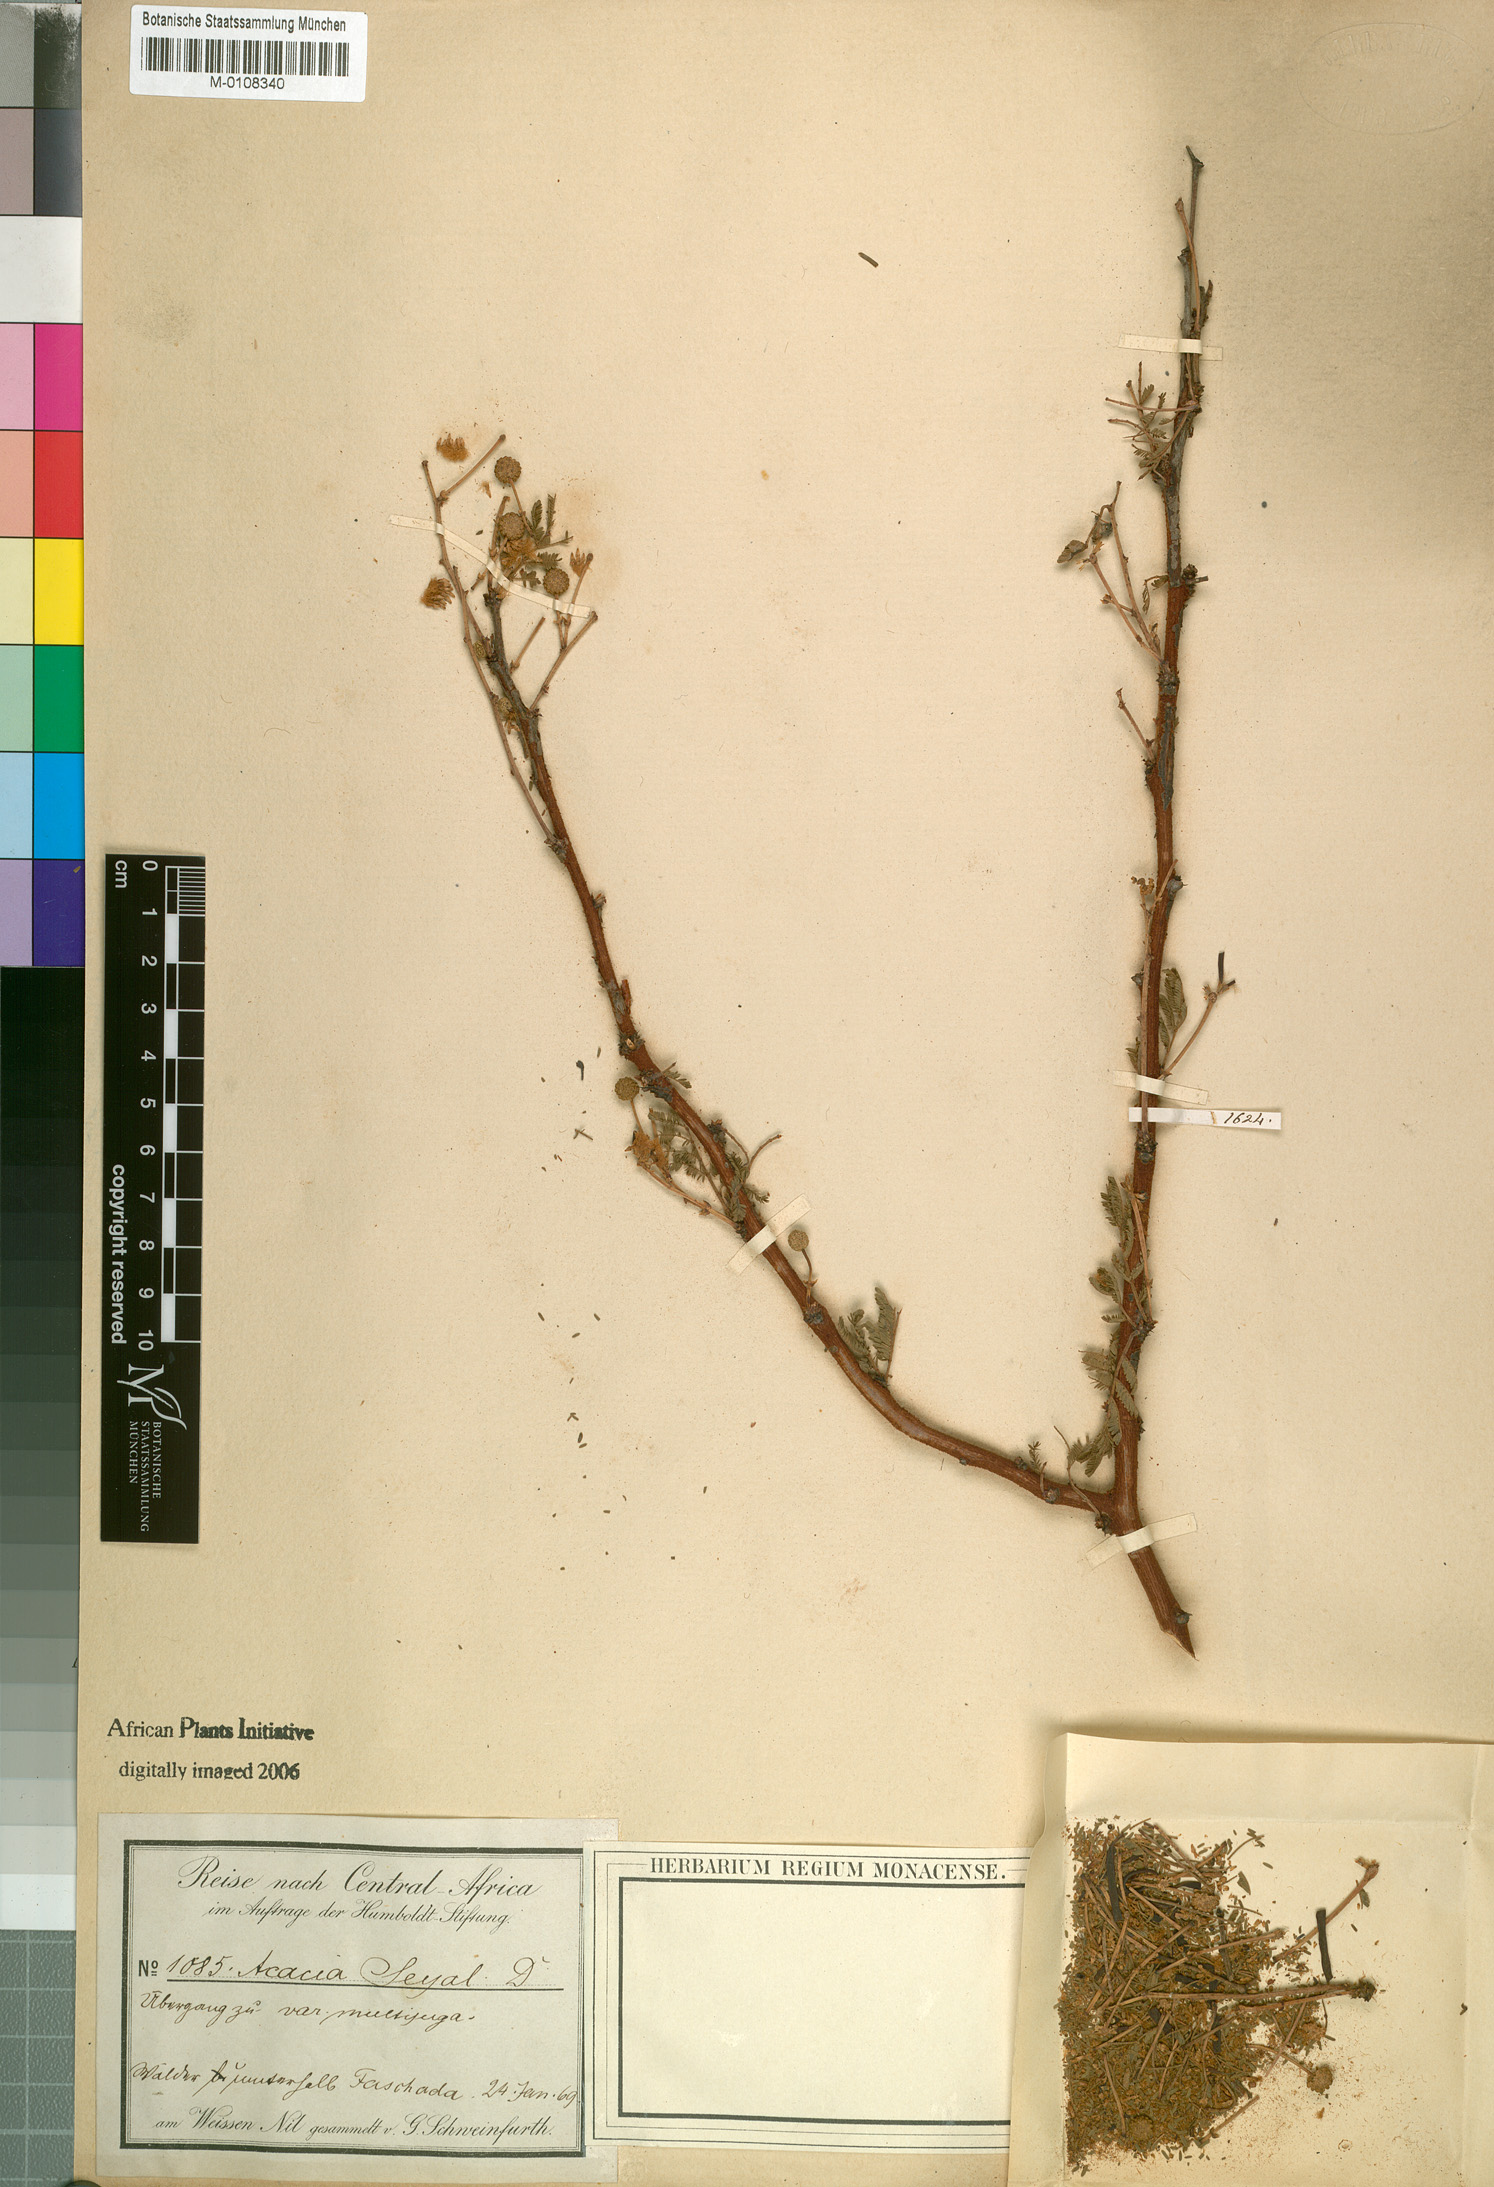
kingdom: Plantae
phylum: Tracheophyta
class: Magnoliopsida
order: Fabales
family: Fabaceae
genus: Vachellia
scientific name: Vachellia hockii
